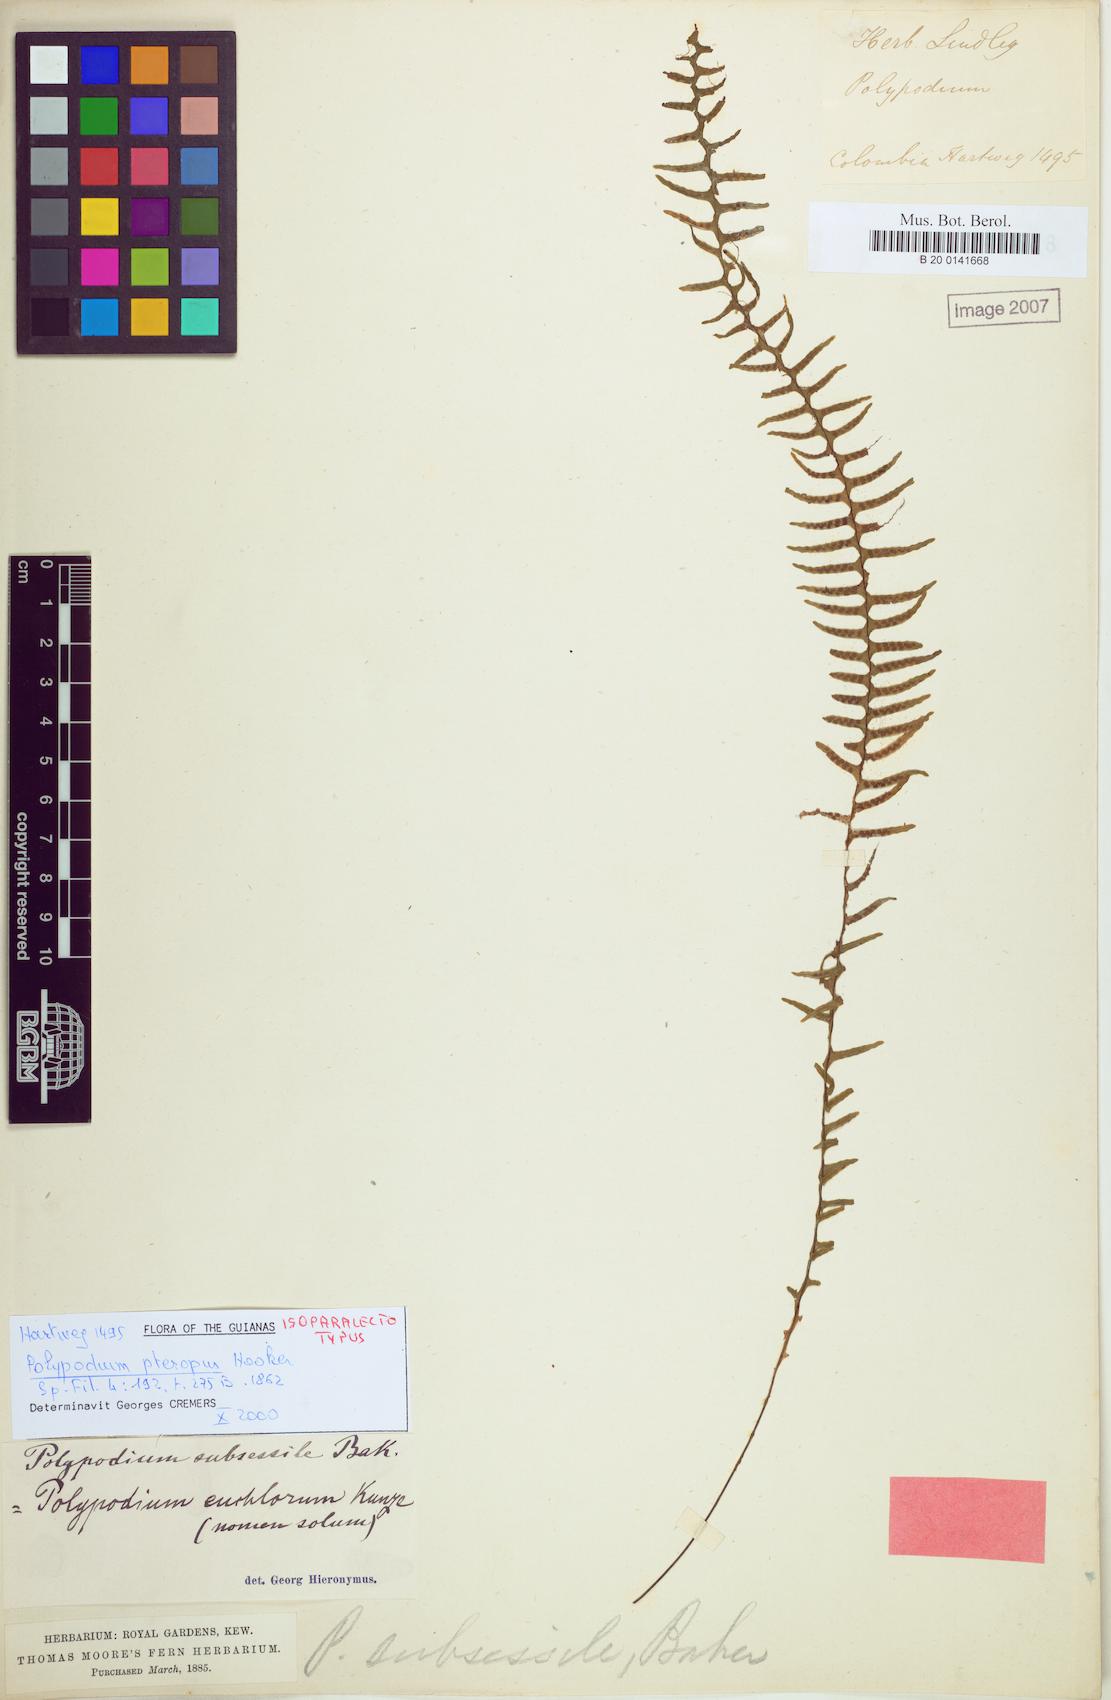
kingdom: Plantae
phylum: Tracheophyta
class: Polypodiopsida
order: Polypodiales
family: Polypodiaceae
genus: Lellingeria
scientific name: Lellingeria bishopii
